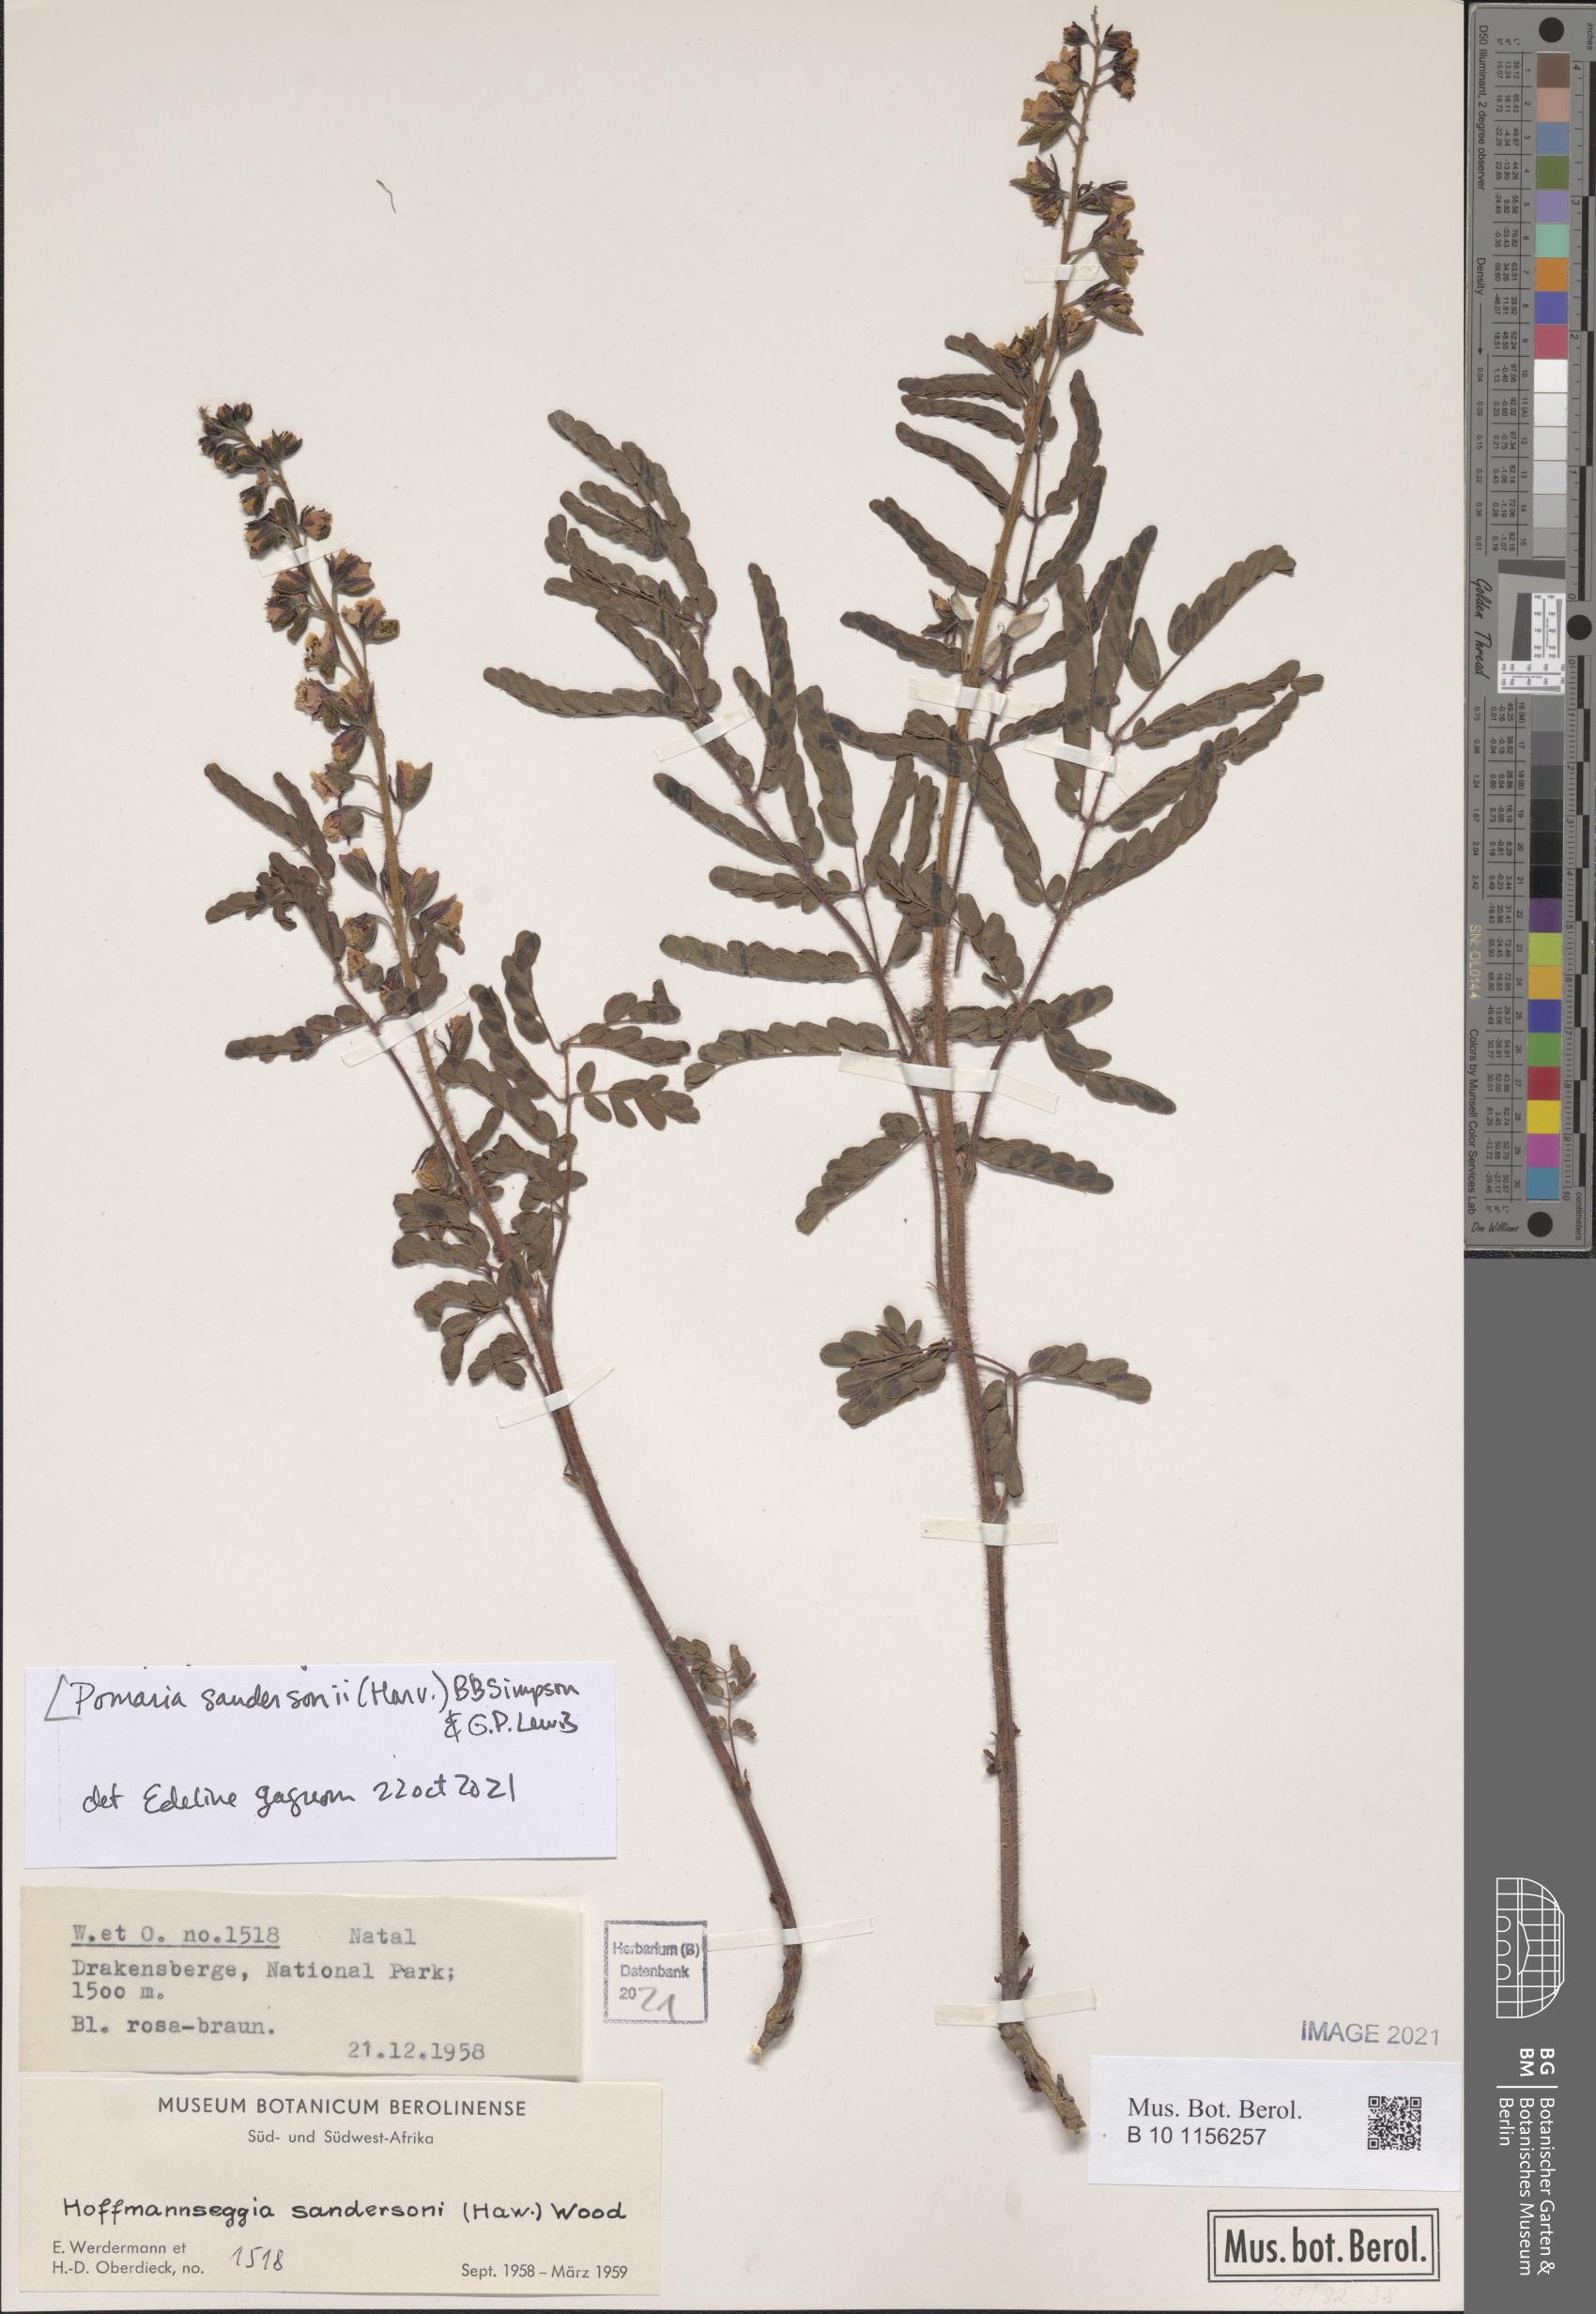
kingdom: Plantae
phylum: Tracheophyta
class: Magnoliopsida
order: Fabales
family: Fabaceae
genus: Pomaria
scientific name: Pomaria sandersonii
